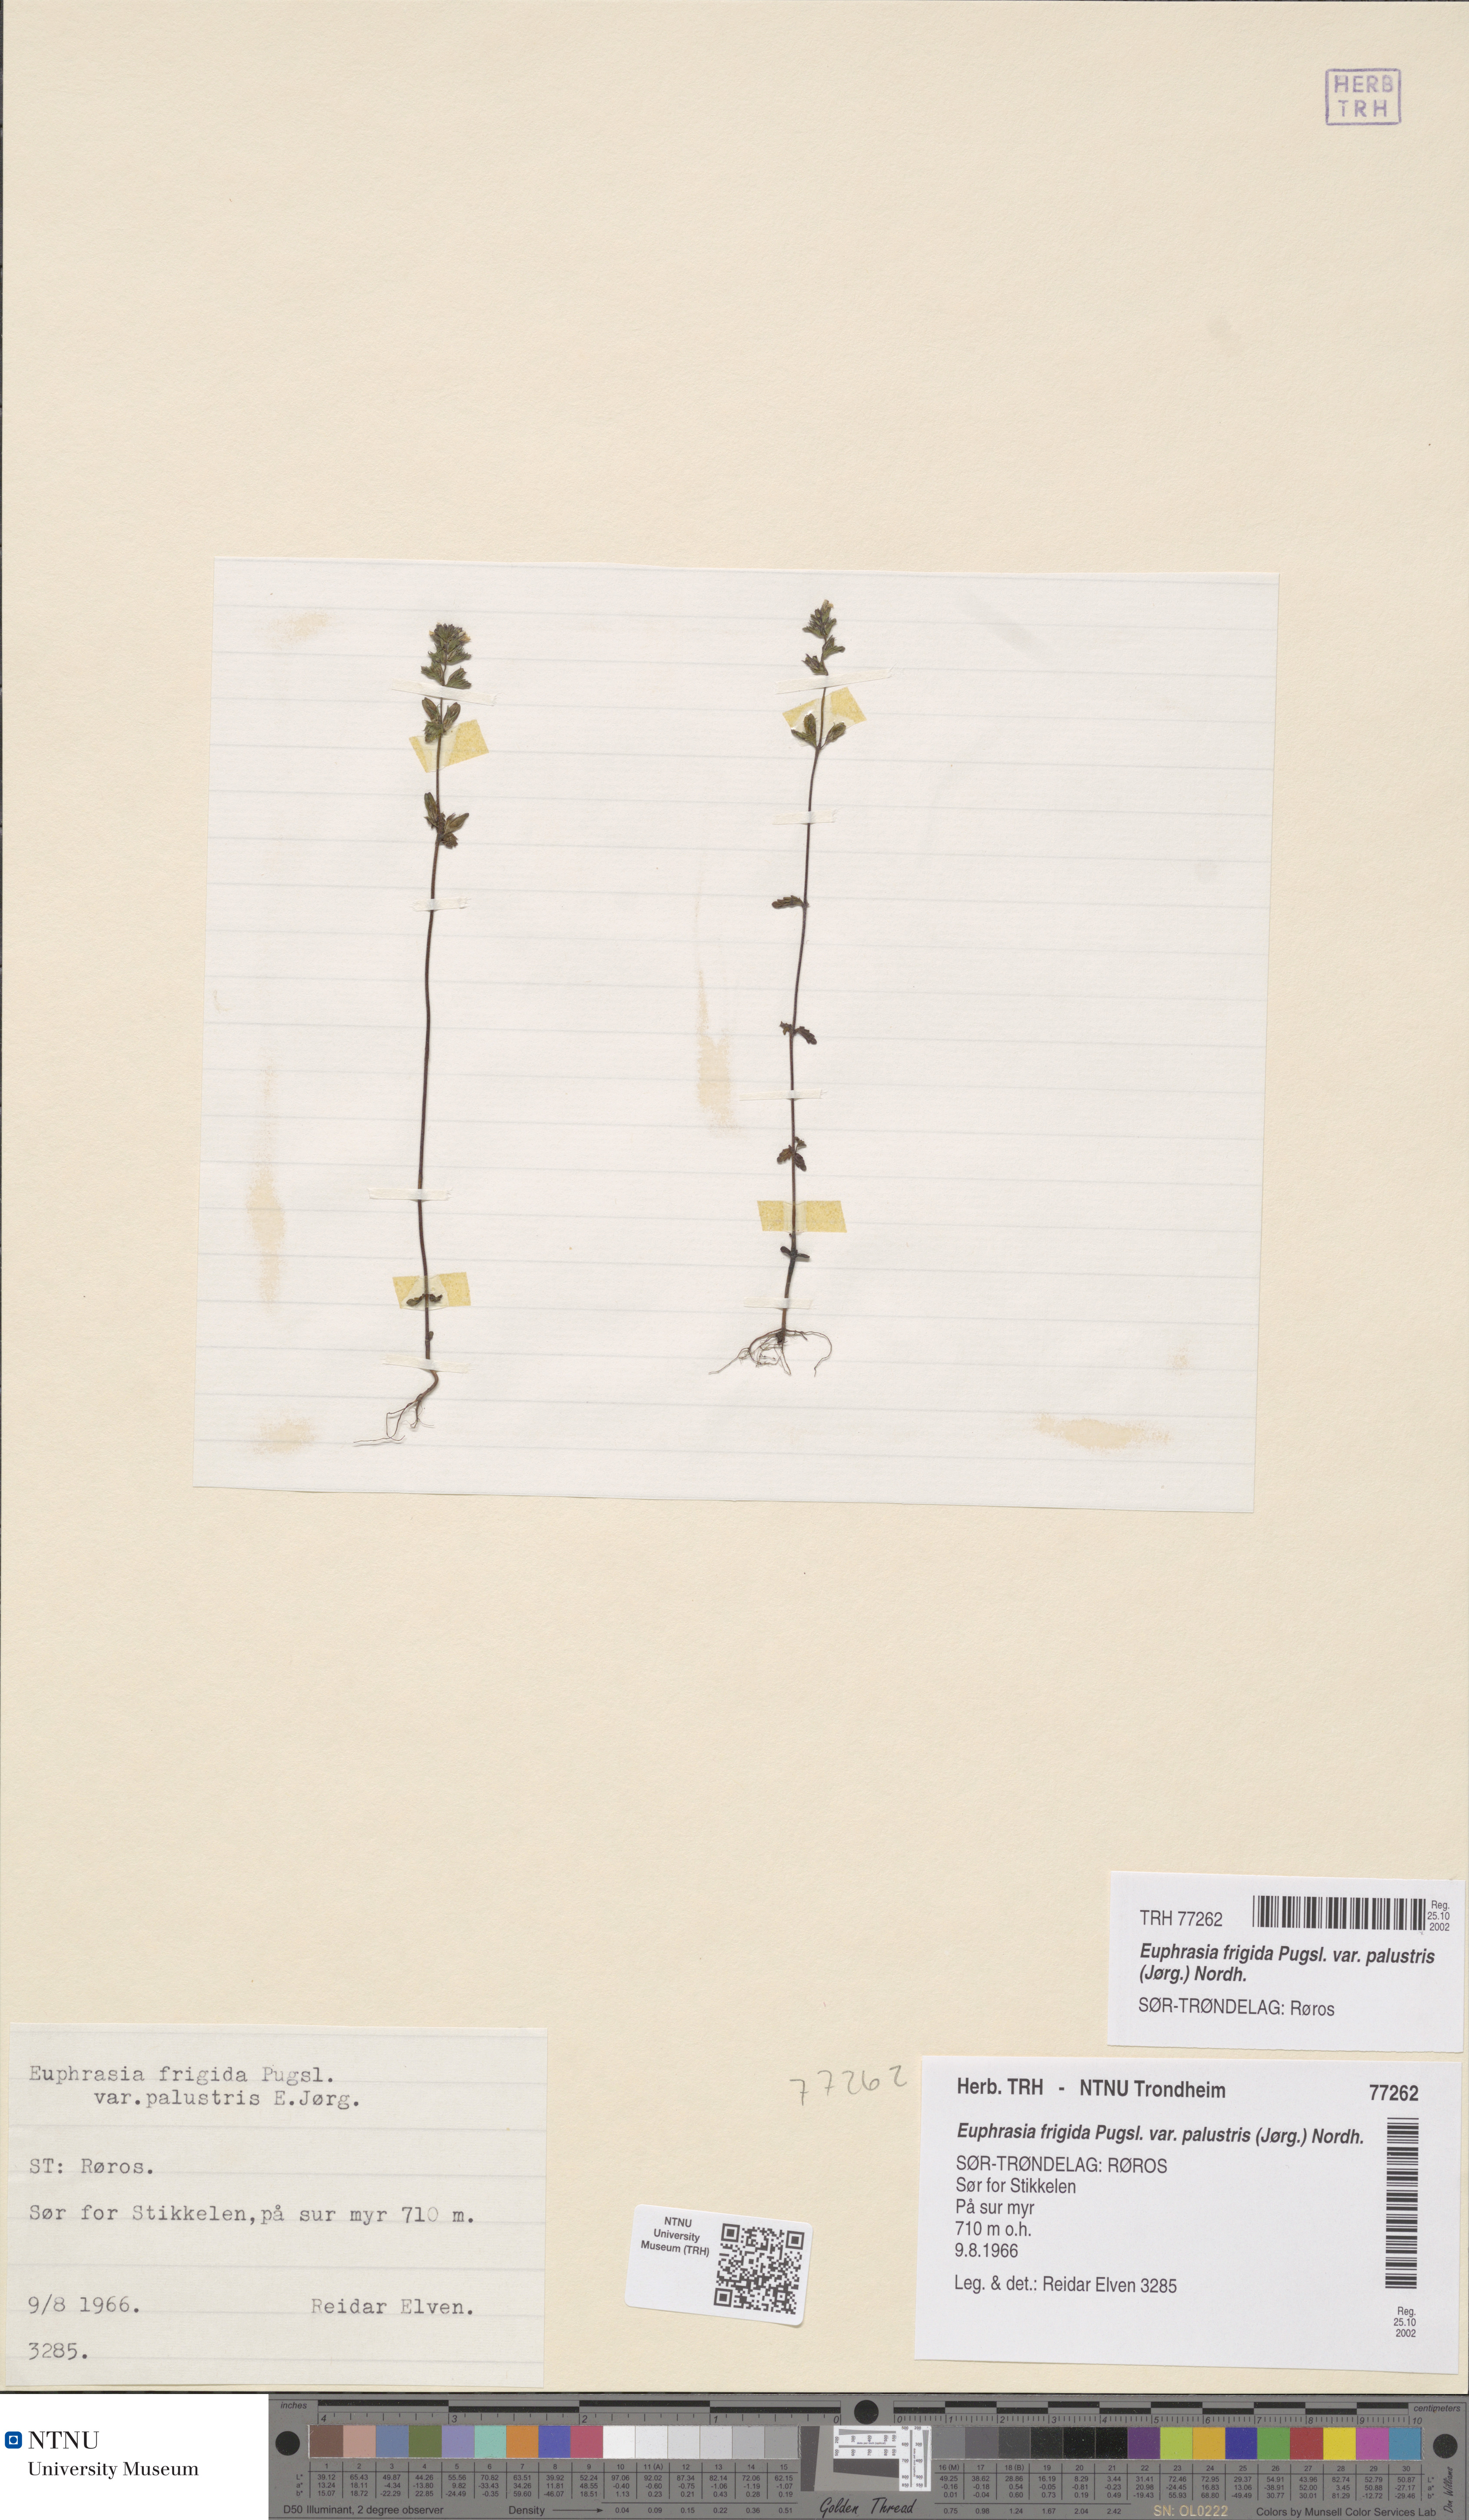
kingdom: Plantae
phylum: Tracheophyta
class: Magnoliopsida
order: Lamiales
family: Orobanchaceae
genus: Euphrasia
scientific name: Euphrasia wettsteinii
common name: Wettstein's eyebright
